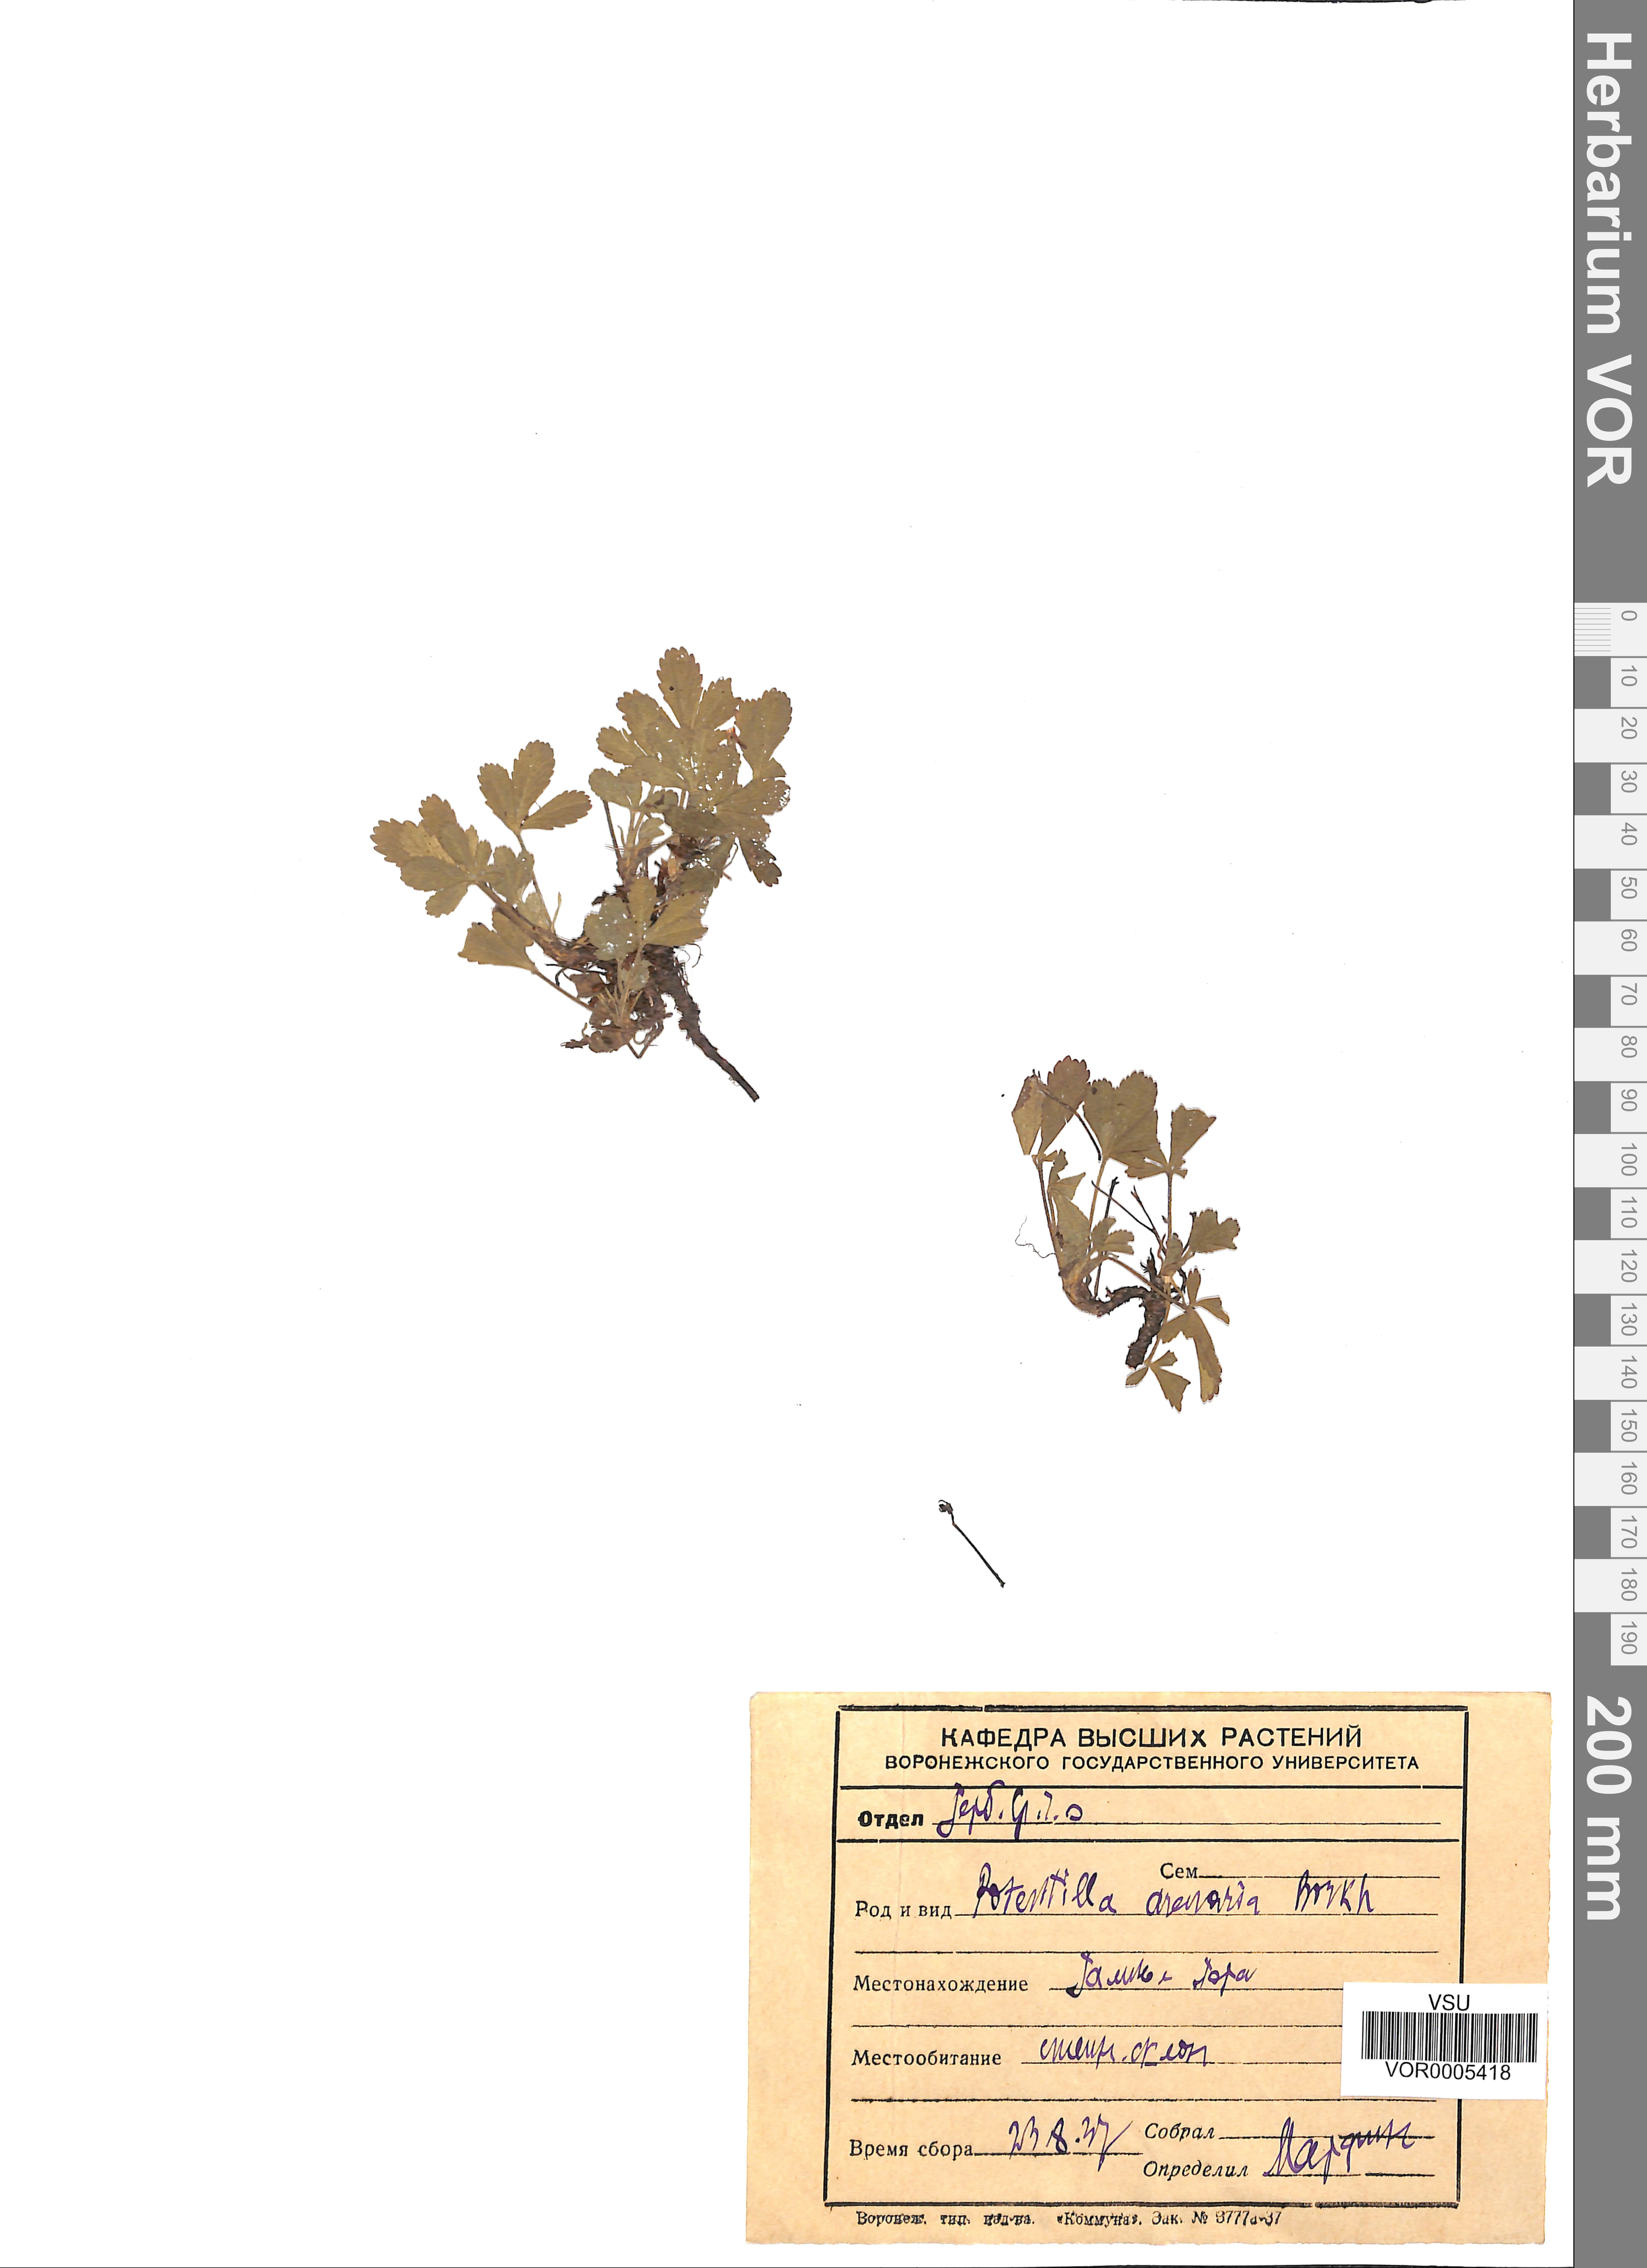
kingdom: Plantae
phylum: Tracheophyta
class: Magnoliopsida
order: Rosales
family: Rosaceae
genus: Potentilla
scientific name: Potentilla cinerea
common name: Ashy cinquefoil
